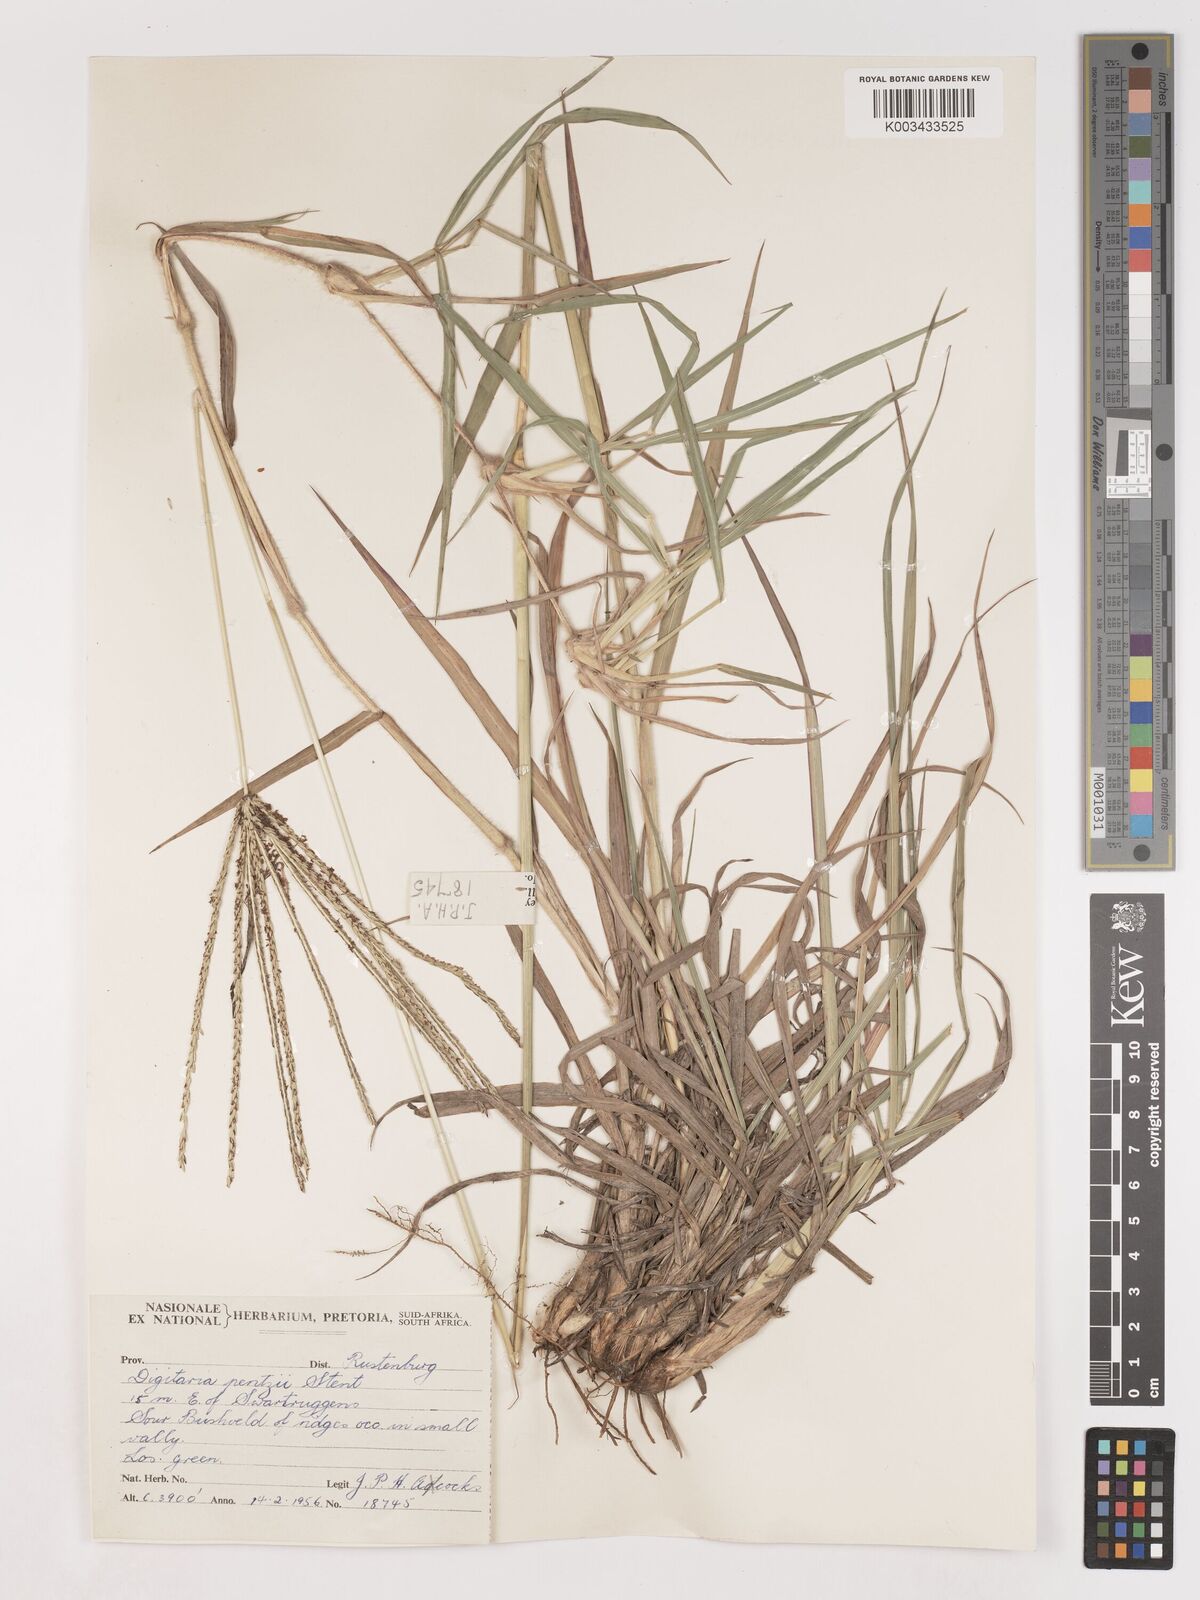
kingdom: Plantae
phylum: Tracheophyta
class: Liliopsida
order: Poales
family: Poaceae
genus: Digitaria
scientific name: Digitaria eriantha
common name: Digitgrass
